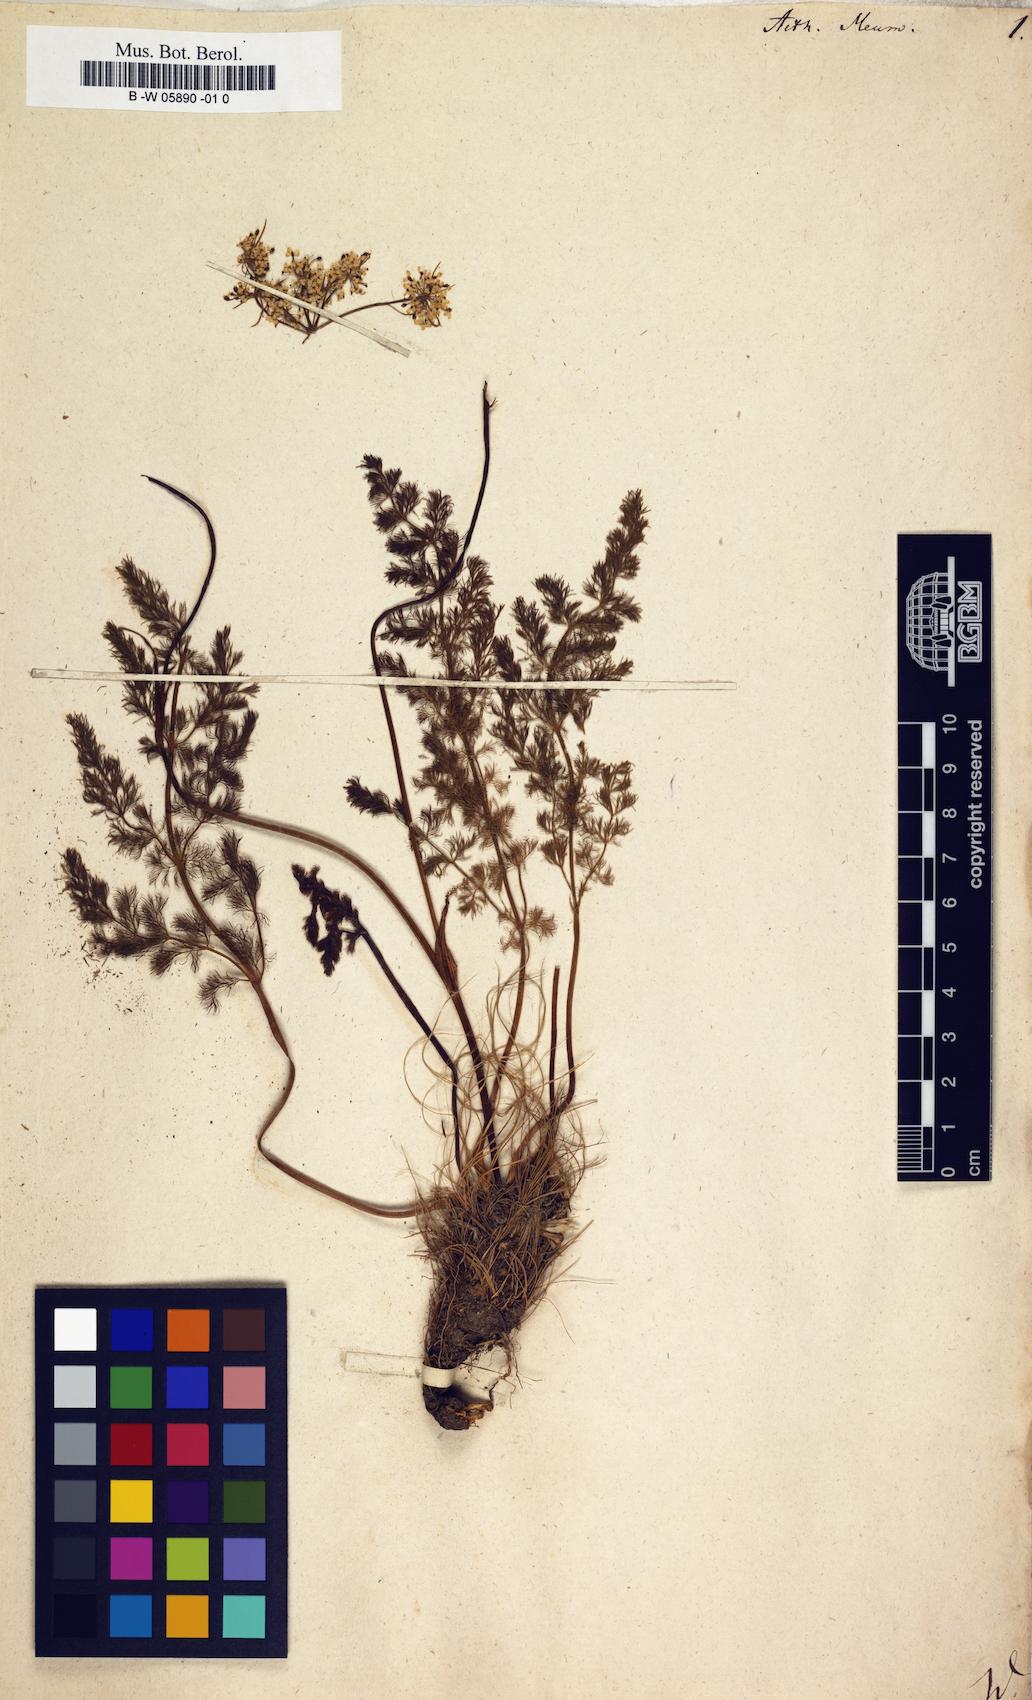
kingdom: Plantae
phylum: Tracheophyta
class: Magnoliopsida
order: Apiales
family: Apiaceae
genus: Meum
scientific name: Meum athamanticum
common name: Spignel
